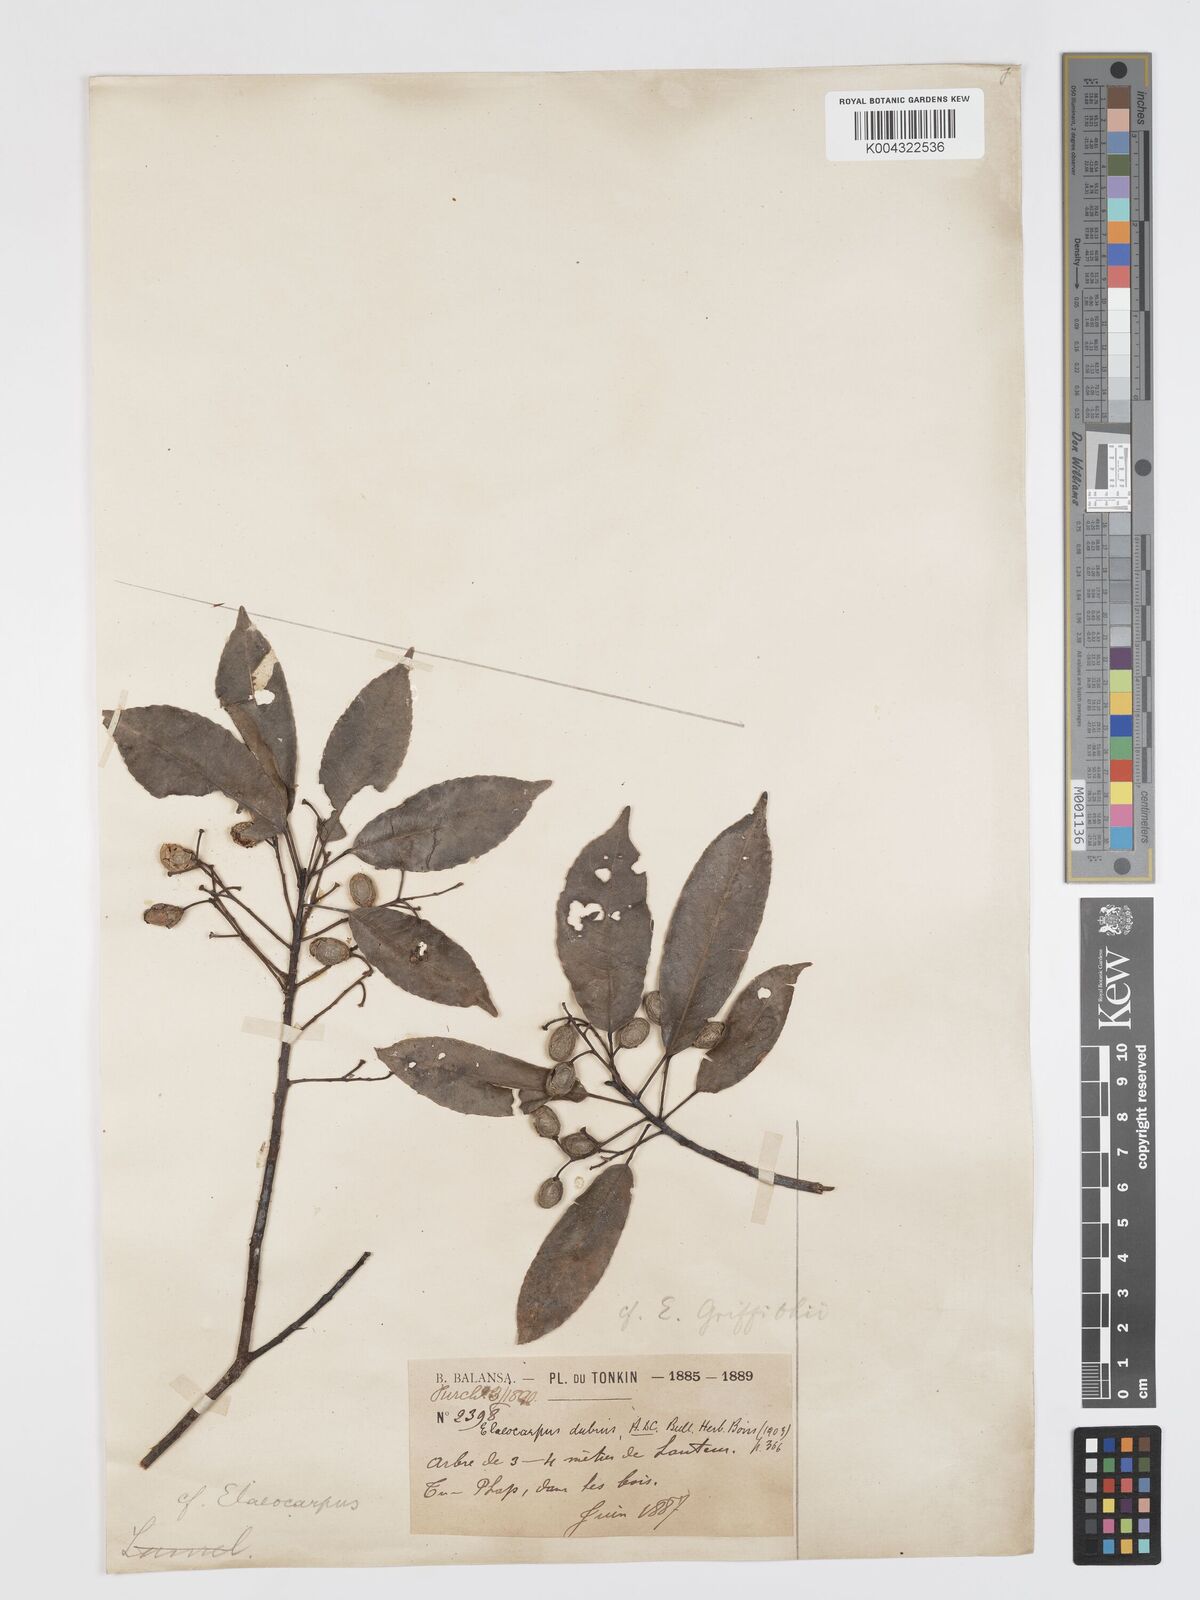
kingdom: Plantae
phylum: Tracheophyta
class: Magnoliopsida
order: Oxalidales
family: Elaeocarpaceae
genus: Elaeocarpus
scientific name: Elaeocarpus dubius
